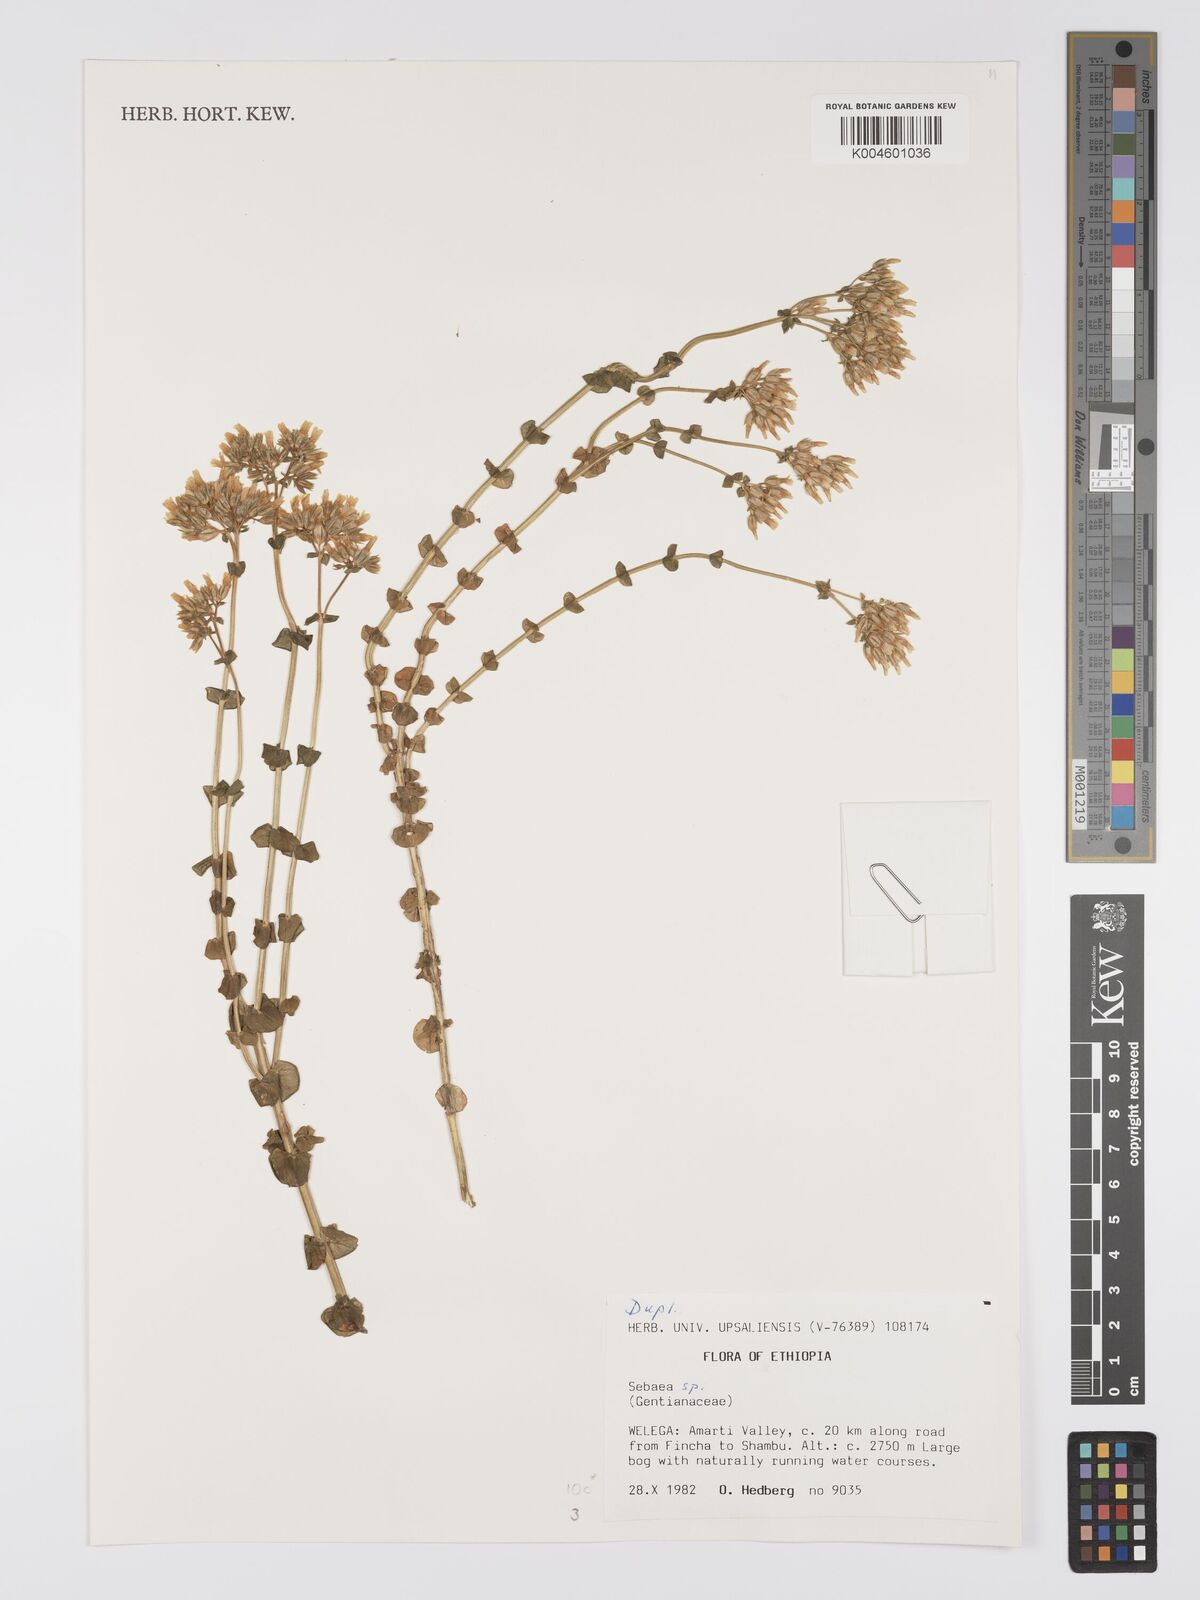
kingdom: Plantae
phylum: Tracheophyta
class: Magnoliopsida
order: Gentianales
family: Gentianaceae
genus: Sebaea
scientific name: Sebaea
